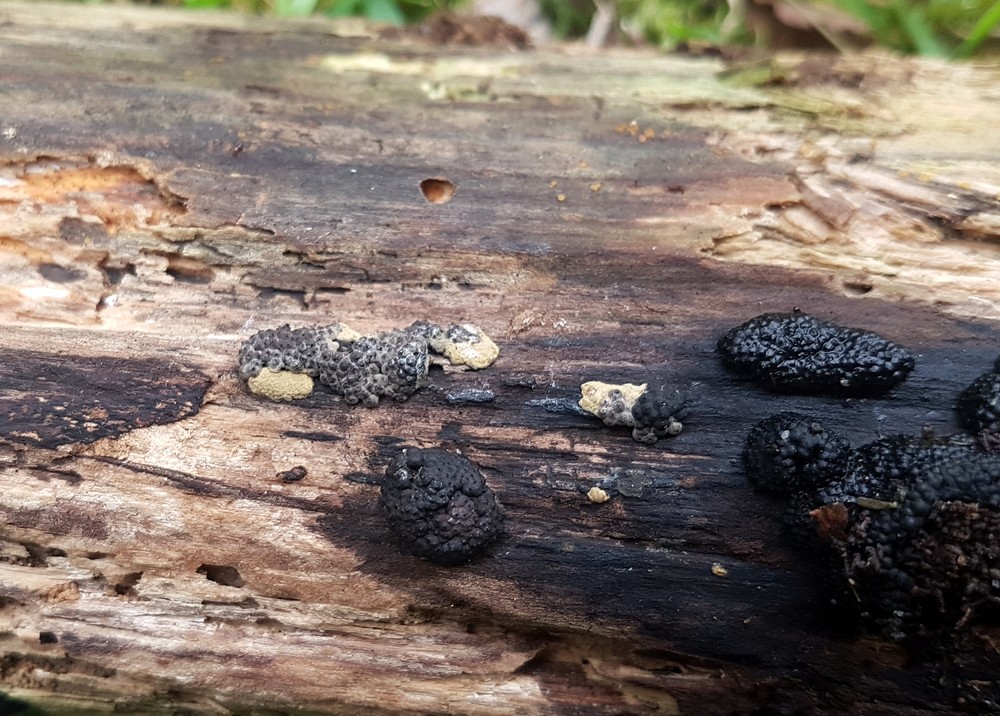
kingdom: Fungi
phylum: Ascomycota
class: Sordariomycetes
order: Xylariales
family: Hypoxylaceae
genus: Jackrogersella
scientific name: Jackrogersella multiformis
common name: foranderlig kulbær
